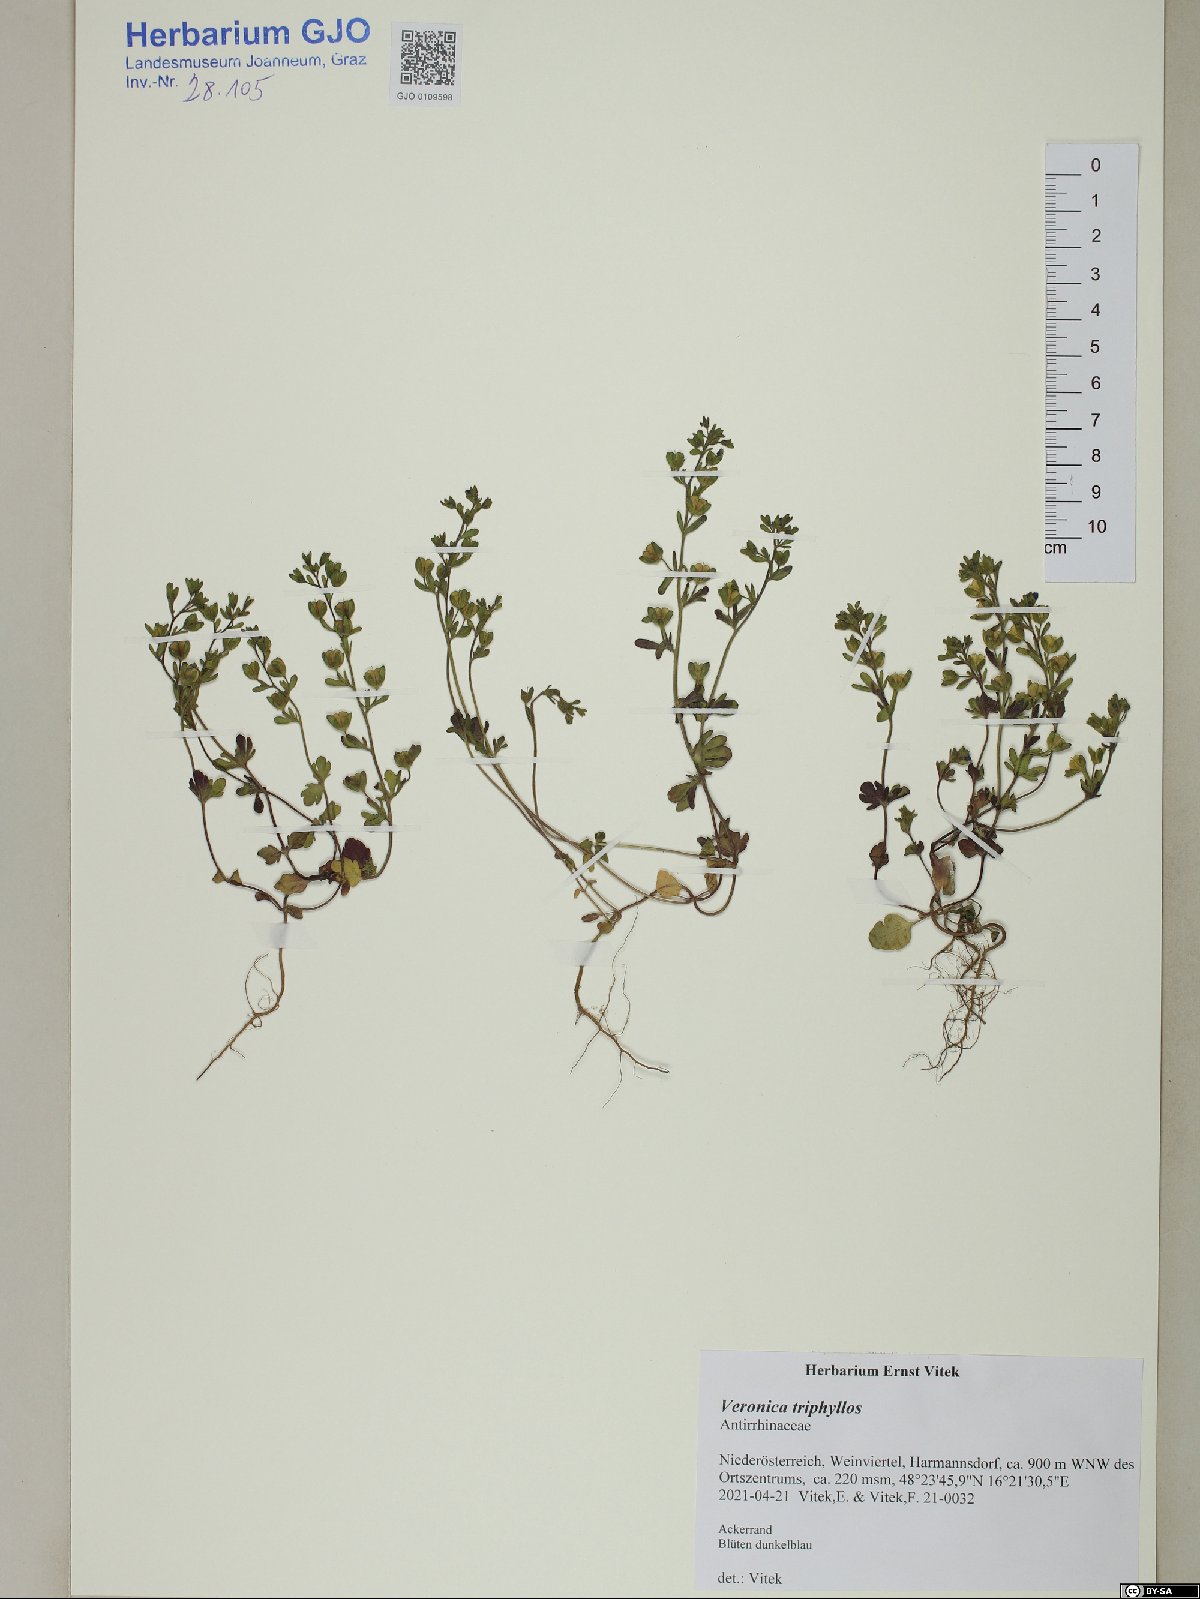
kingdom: Plantae
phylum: Tracheophyta
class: Magnoliopsida
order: Lamiales
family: Plantaginaceae
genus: Veronica
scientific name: Veronica triphyllos
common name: Fingered speedwell
